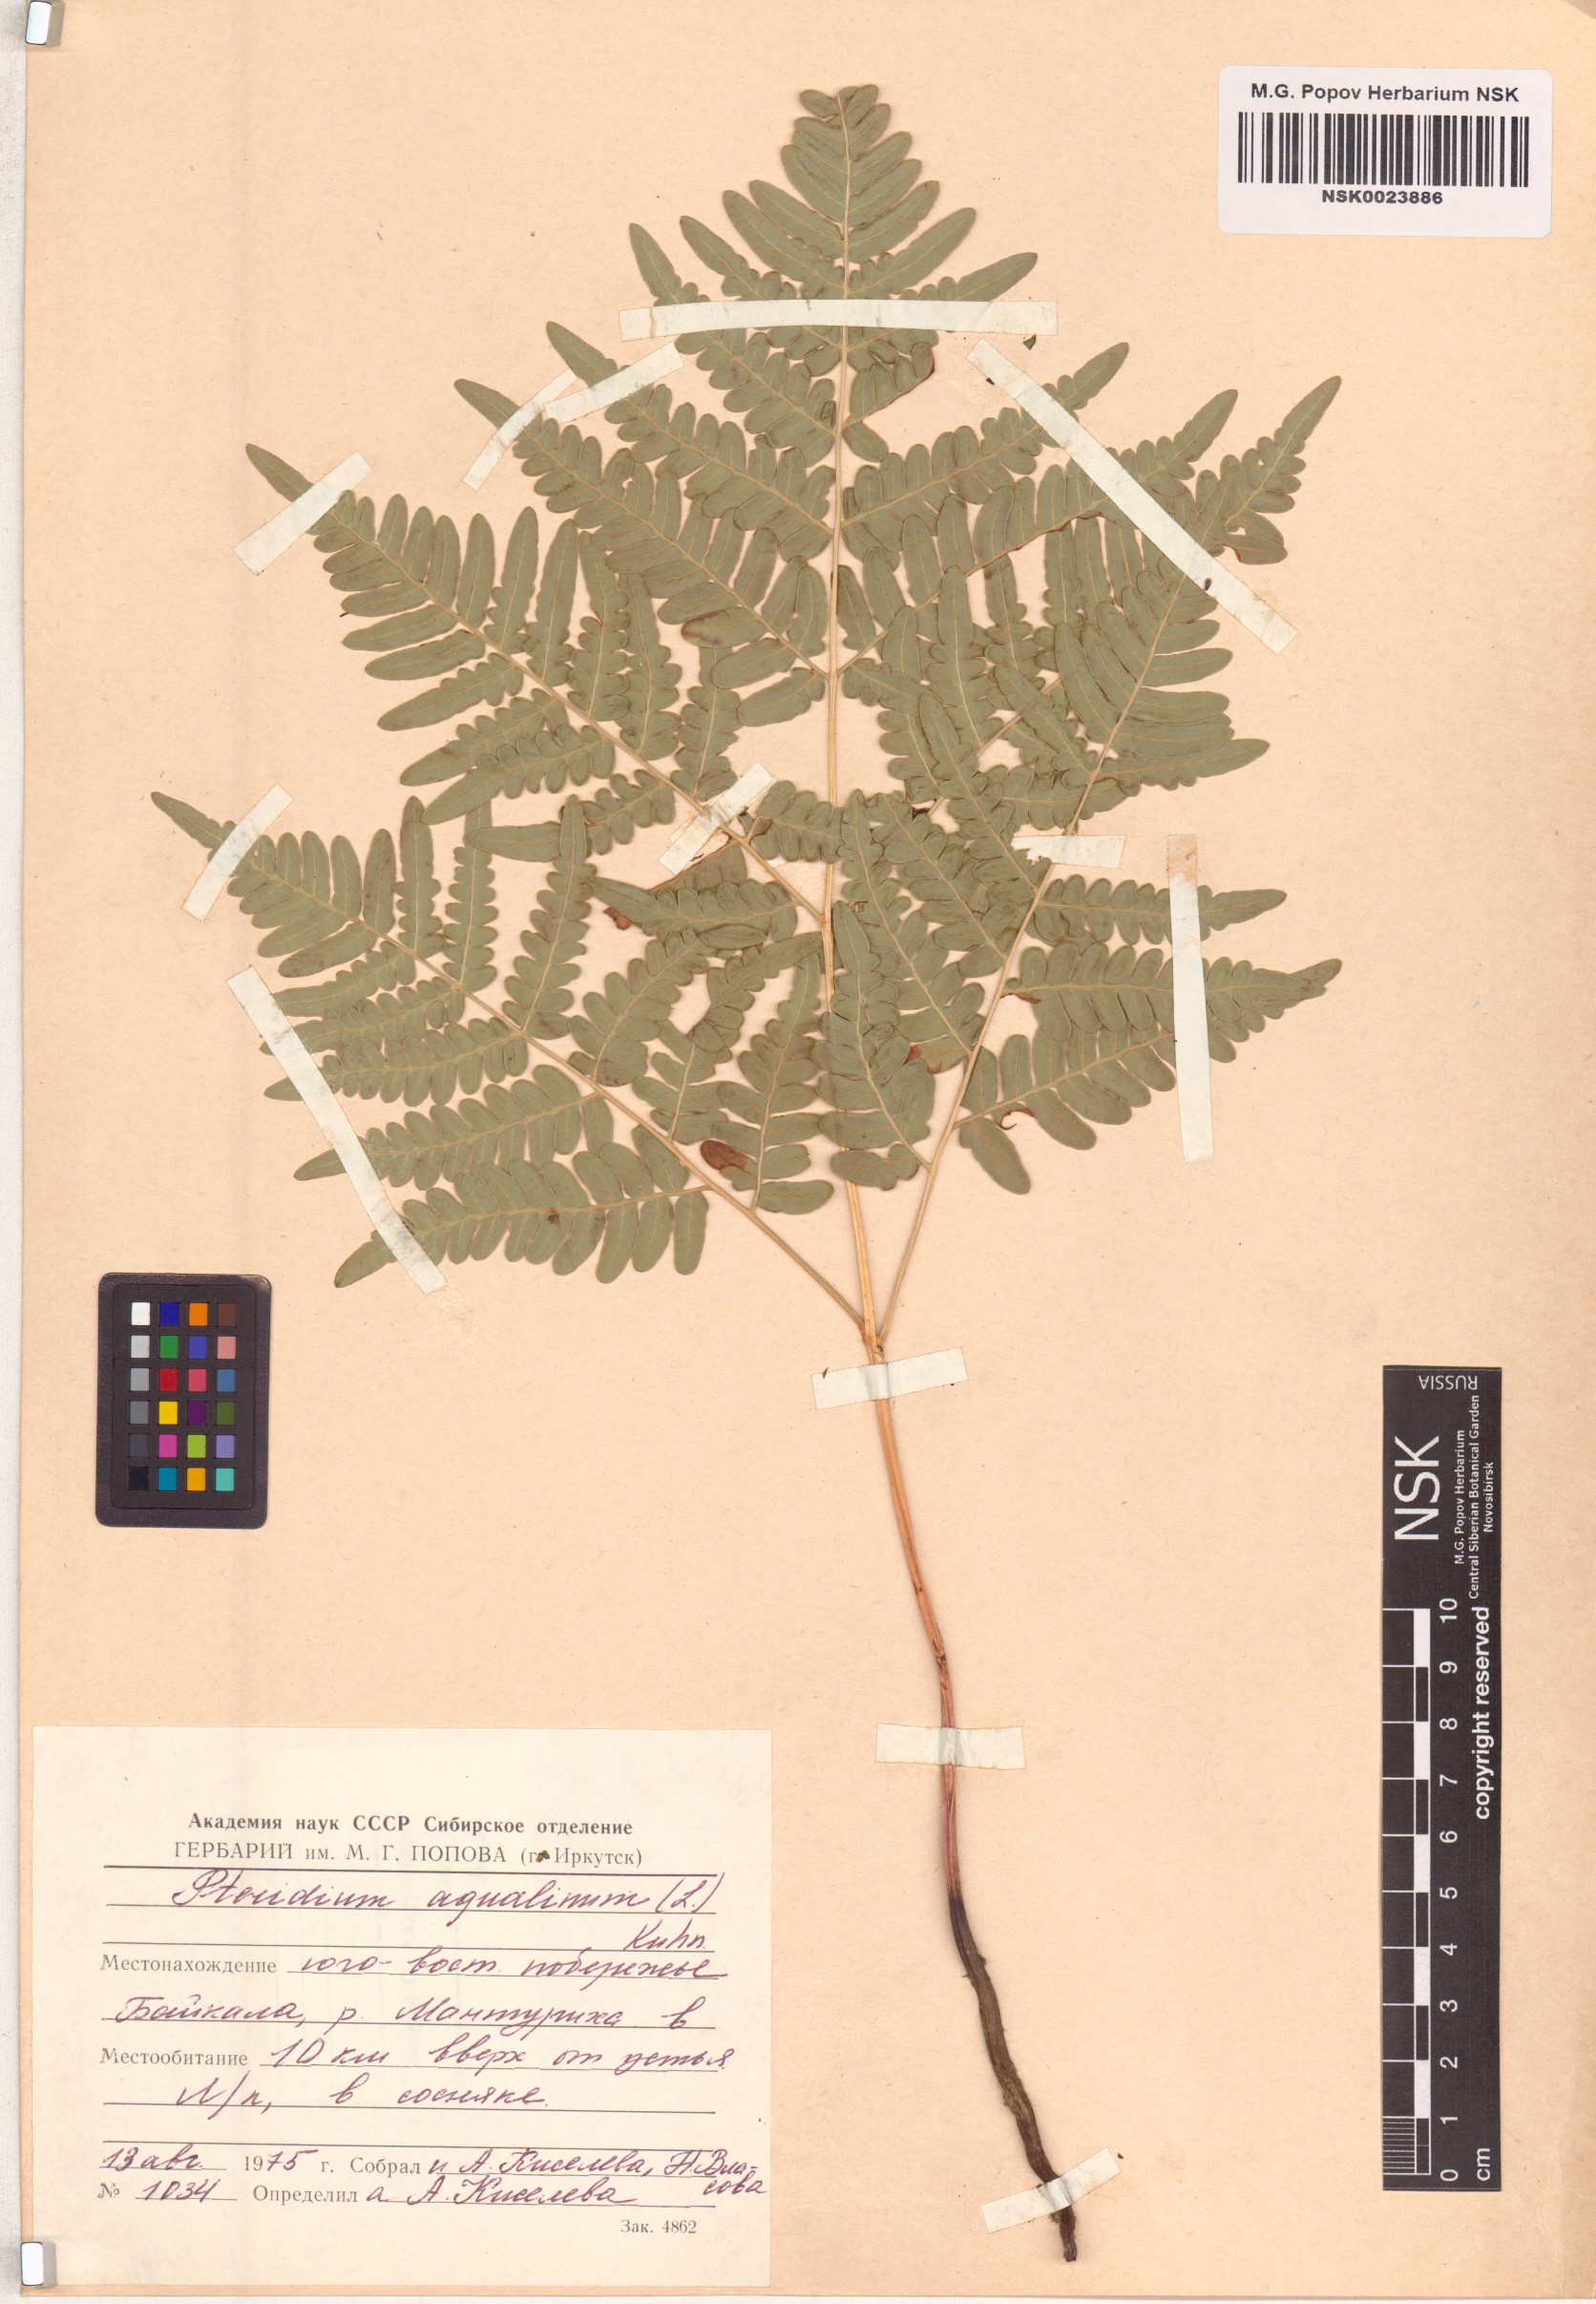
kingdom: Plantae
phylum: Tracheophyta
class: Polypodiopsida
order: Polypodiales
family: Dennstaedtiaceae
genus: Pteridium
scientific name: Pteridium aquilinum
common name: Bracken
